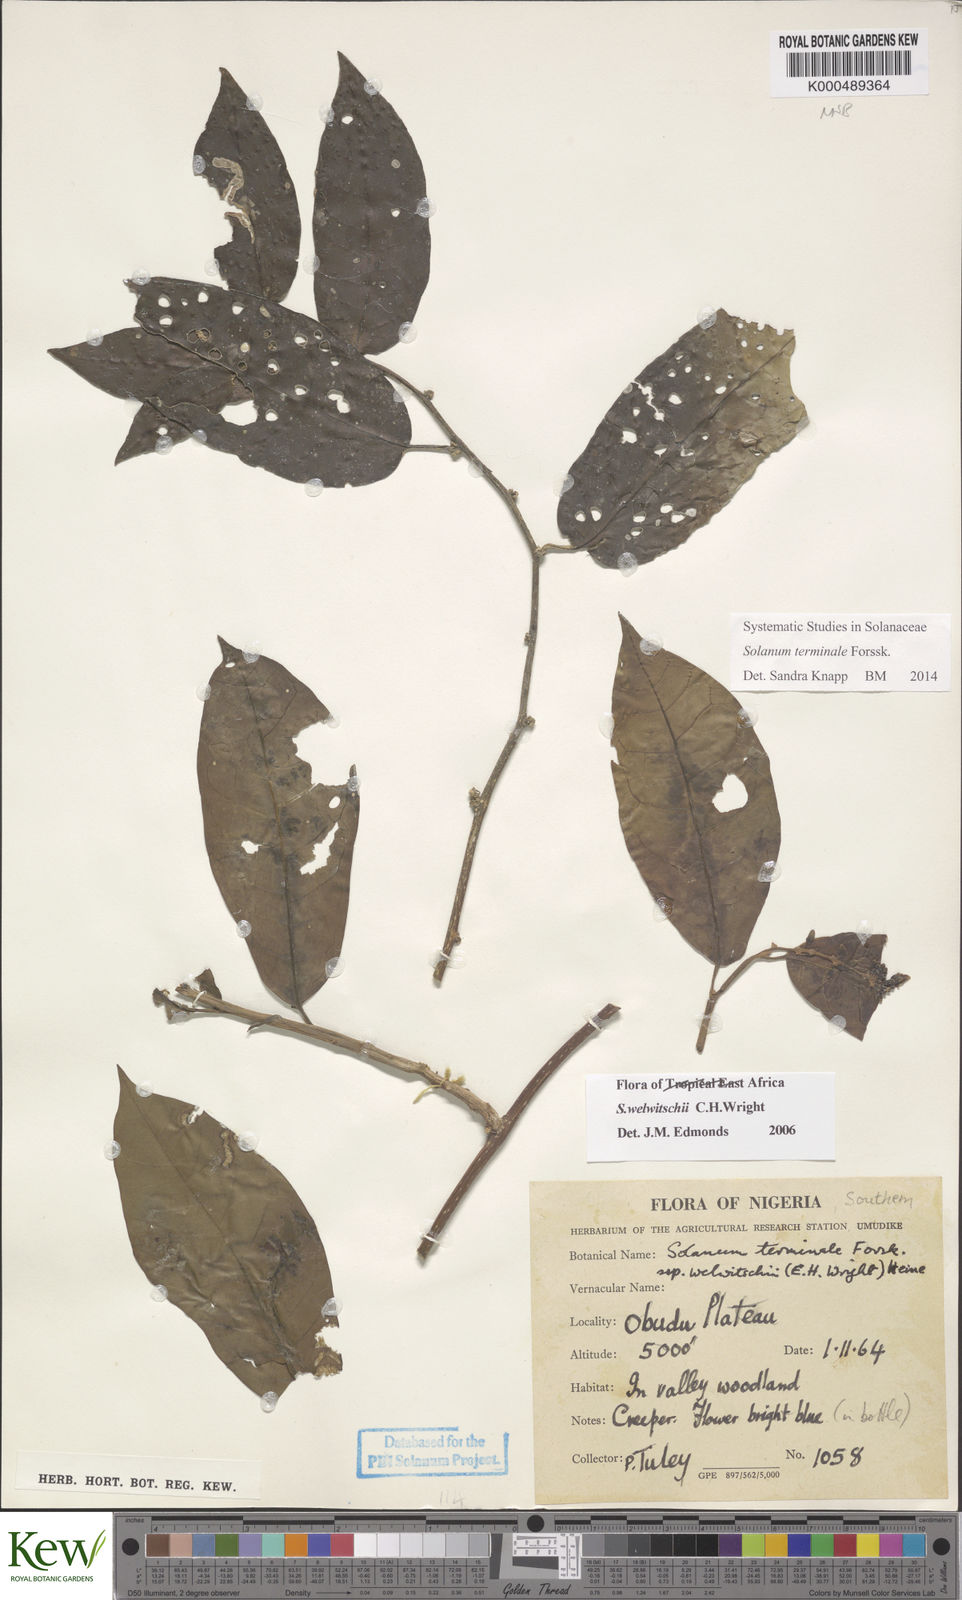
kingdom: Plantae
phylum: Tracheophyta
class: Magnoliopsida
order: Solanales
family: Solanaceae
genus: Solanum
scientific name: Solanum terminale
